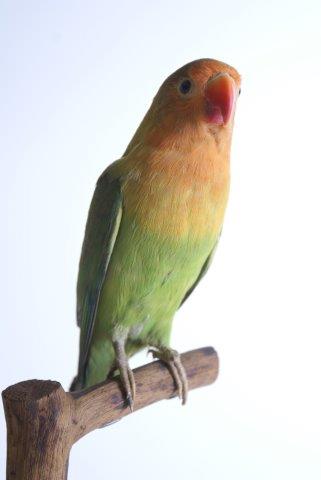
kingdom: Animalia
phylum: Chordata
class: Aves
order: Psittaciformes
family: Psittacidae
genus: Agapornis
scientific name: Agapornis fischeri
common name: Fischer's lovebird
